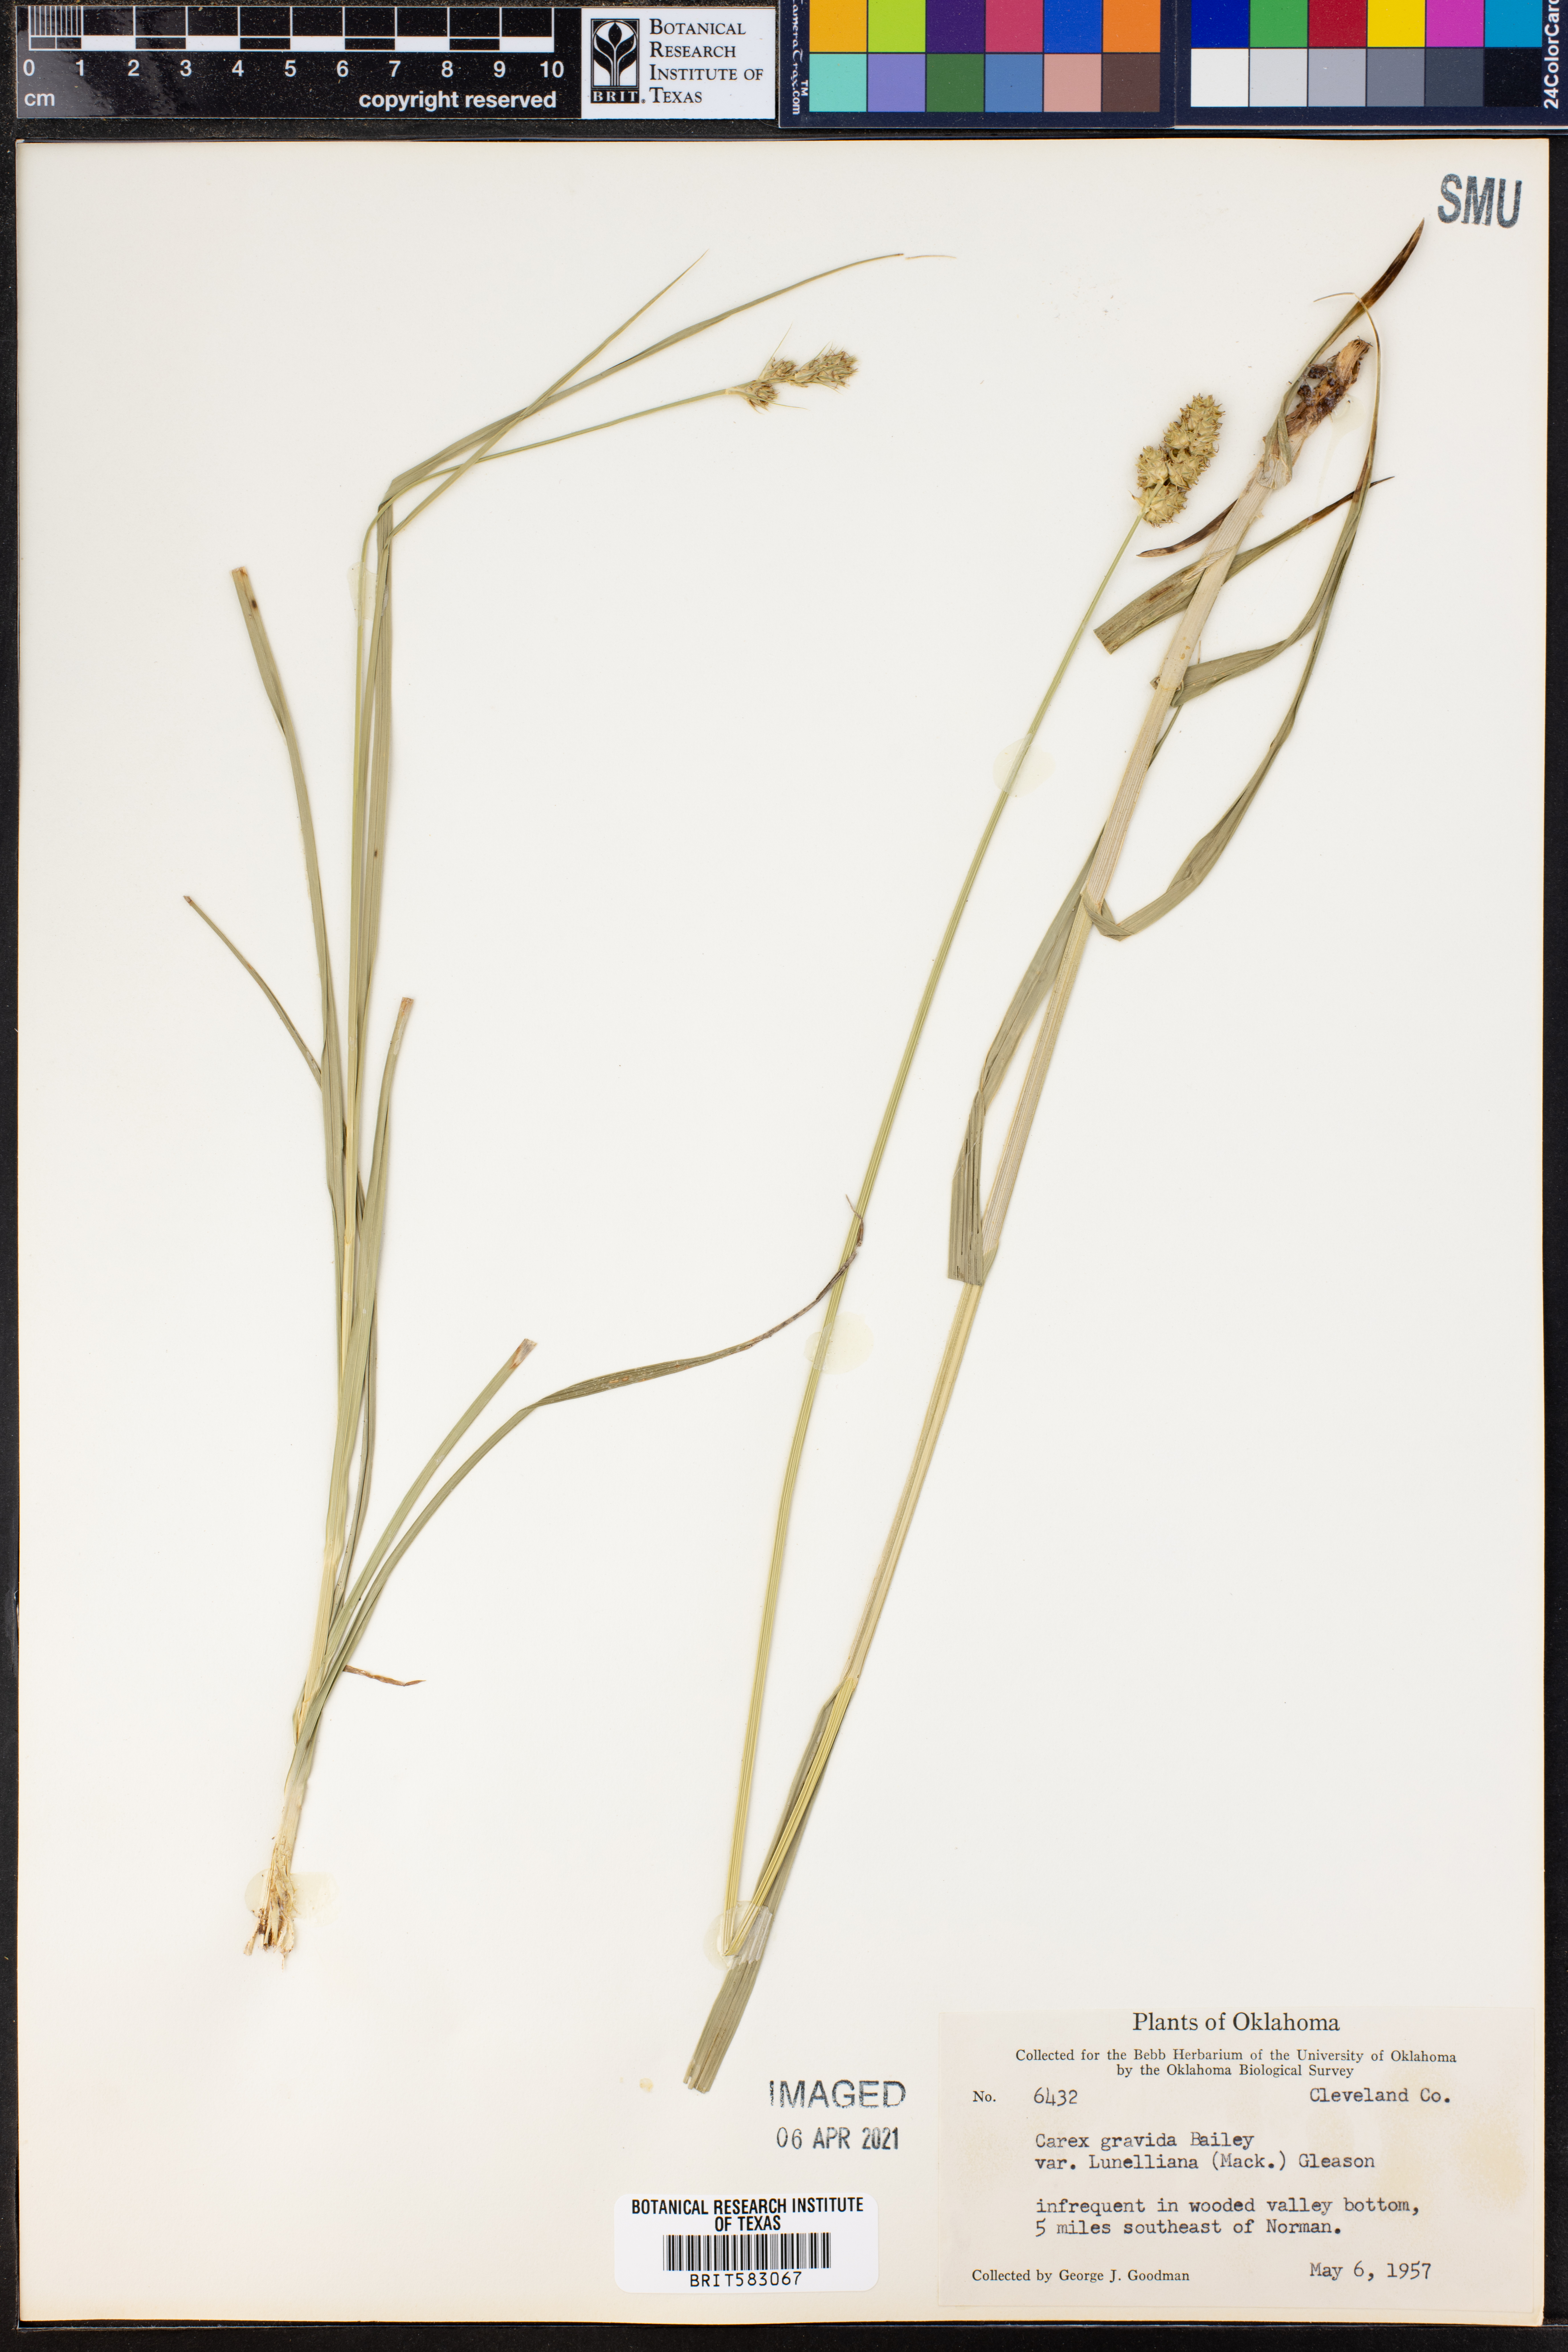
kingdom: Plantae
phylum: Tracheophyta
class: Liliopsida
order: Poales
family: Cyperaceae
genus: Carex
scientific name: Carex gravida
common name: Heavy sedge
